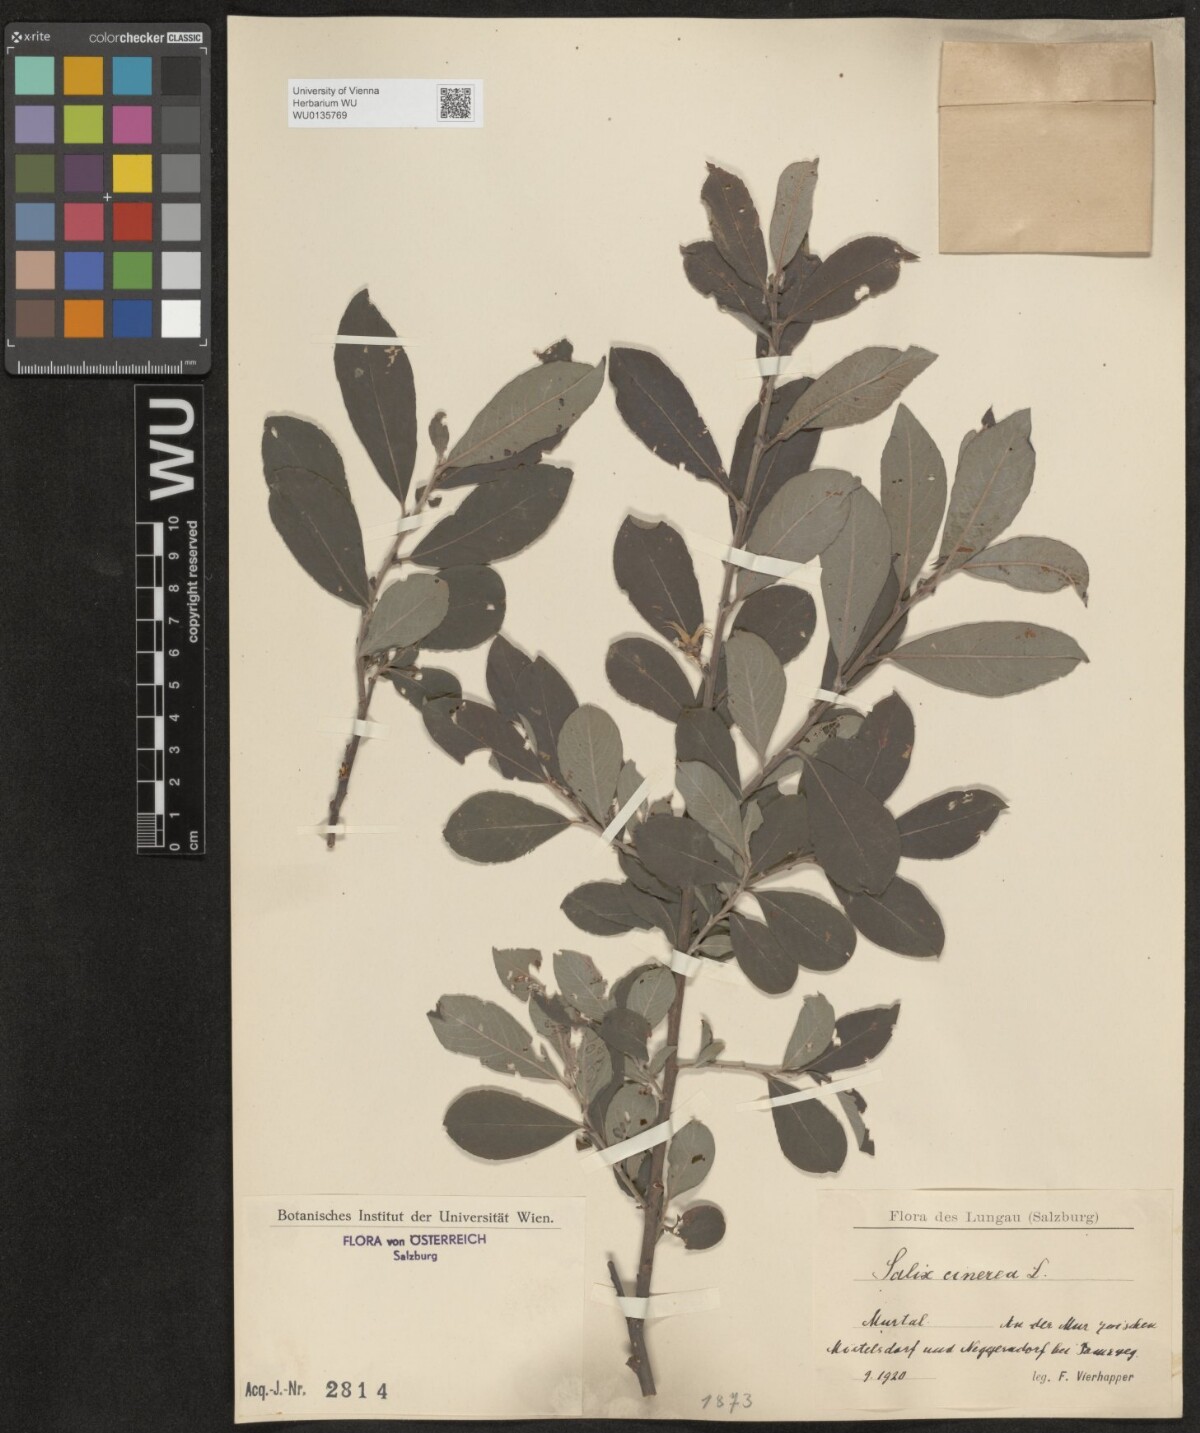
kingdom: Plantae
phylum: Tracheophyta
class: Magnoliopsida
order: Malpighiales
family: Salicaceae
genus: Salix
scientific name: Salix cinerea
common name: Common sallow
